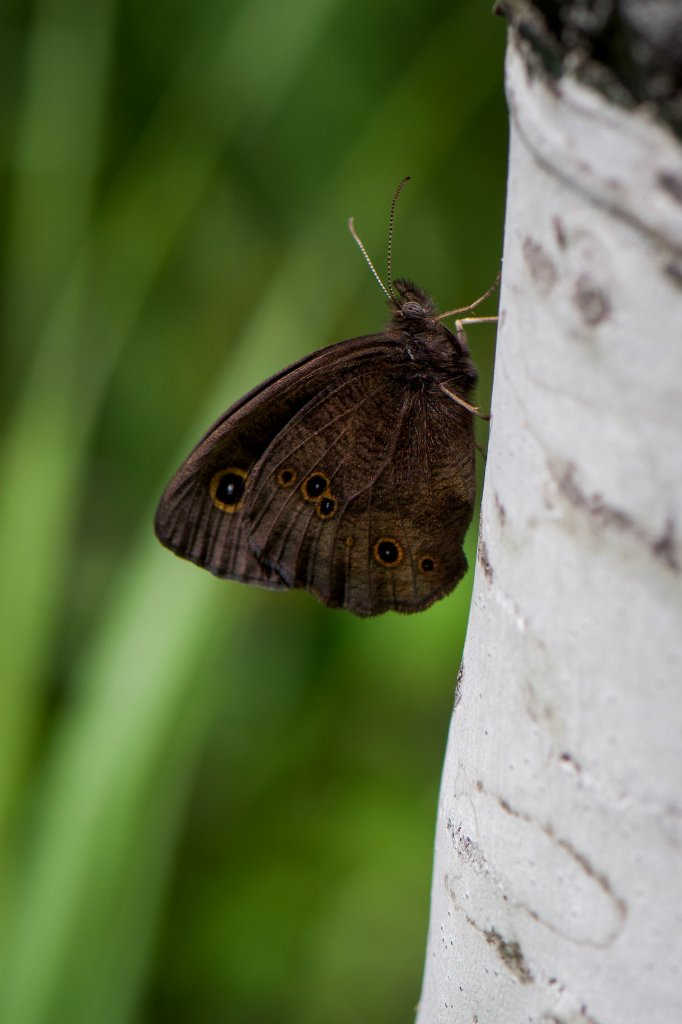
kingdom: Animalia
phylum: Arthropoda
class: Insecta
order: Lepidoptera
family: Nymphalidae
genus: Cercyonis
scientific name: Cercyonis pegala
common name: Common Wood-Nymph
